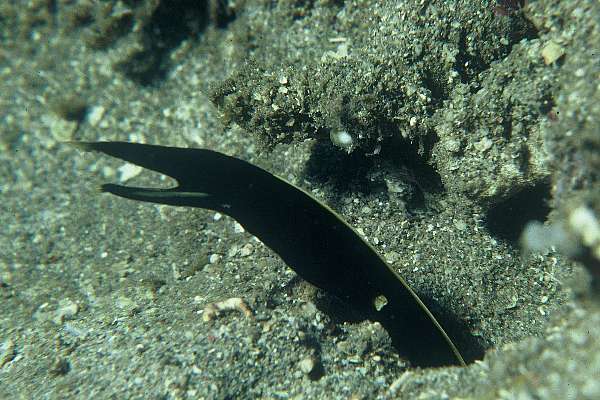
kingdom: Animalia
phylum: Chordata
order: Anguilliformes
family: Muraenidae
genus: Rhinomuraena
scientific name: Rhinomuraena quaesita
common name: Ribbon eel
